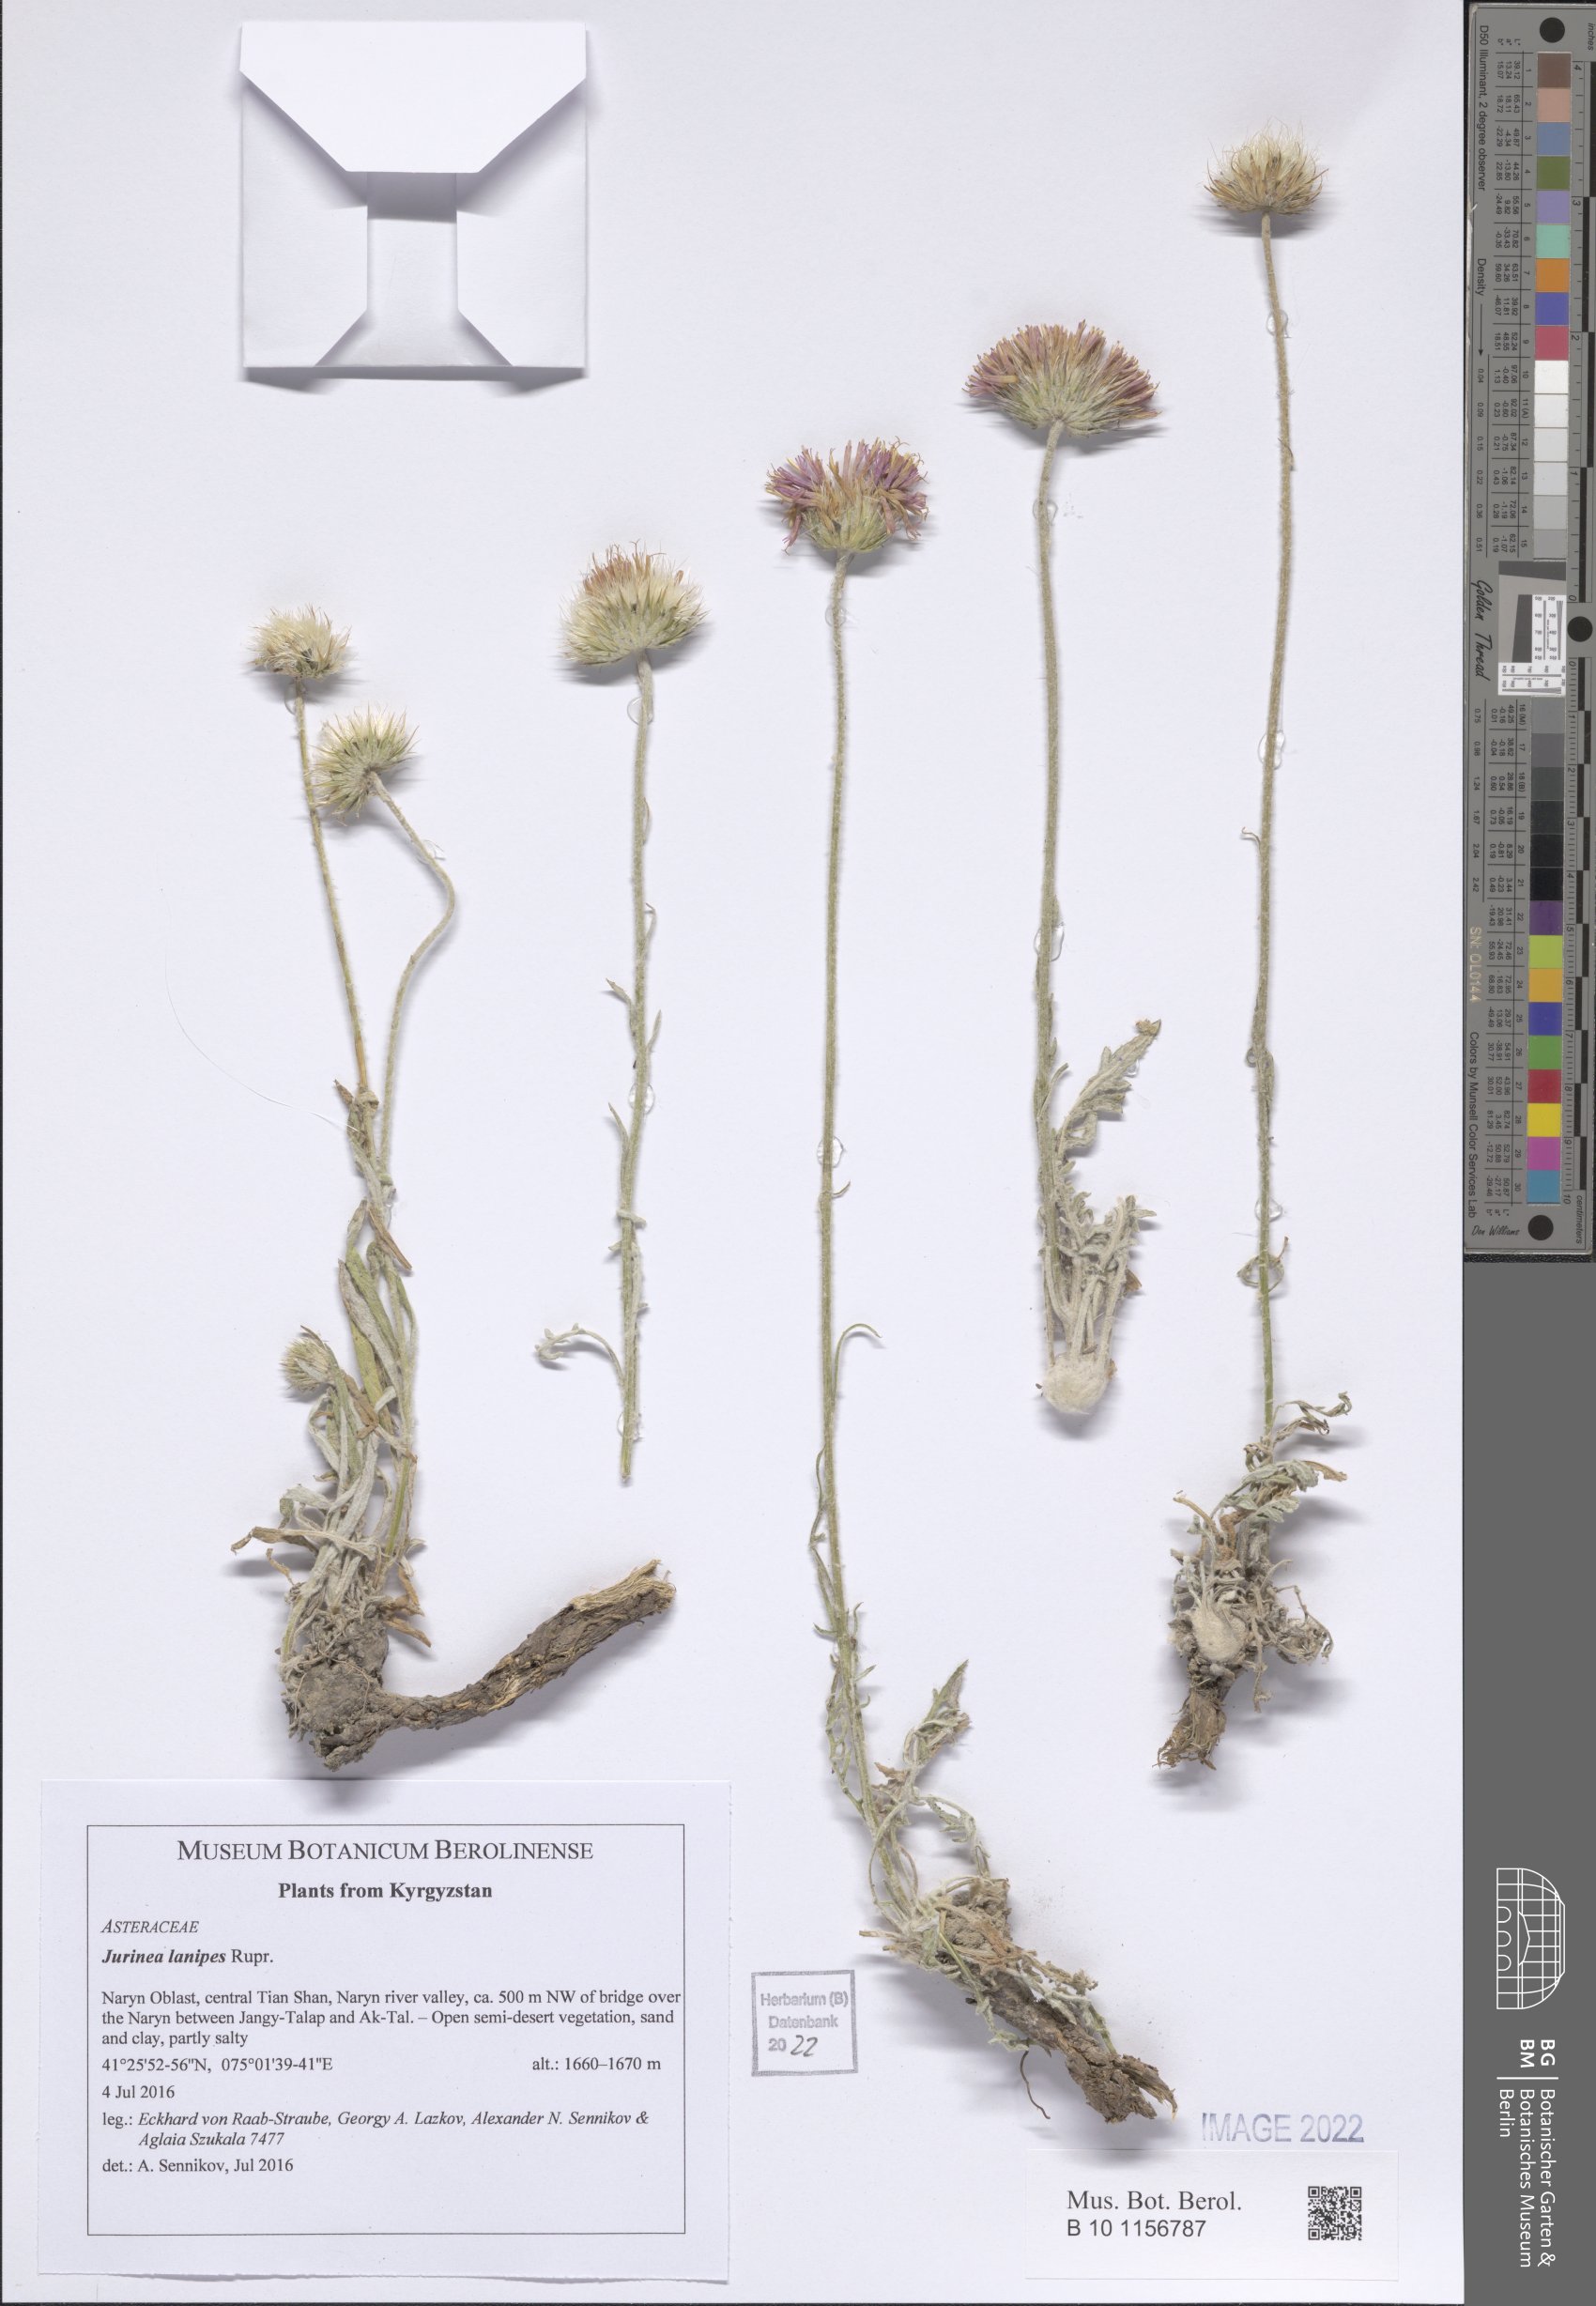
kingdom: Plantae
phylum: Tracheophyta
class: Magnoliopsida
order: Asterales
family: Asteraceae
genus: Jurinea
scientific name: Jurinea lanipes
